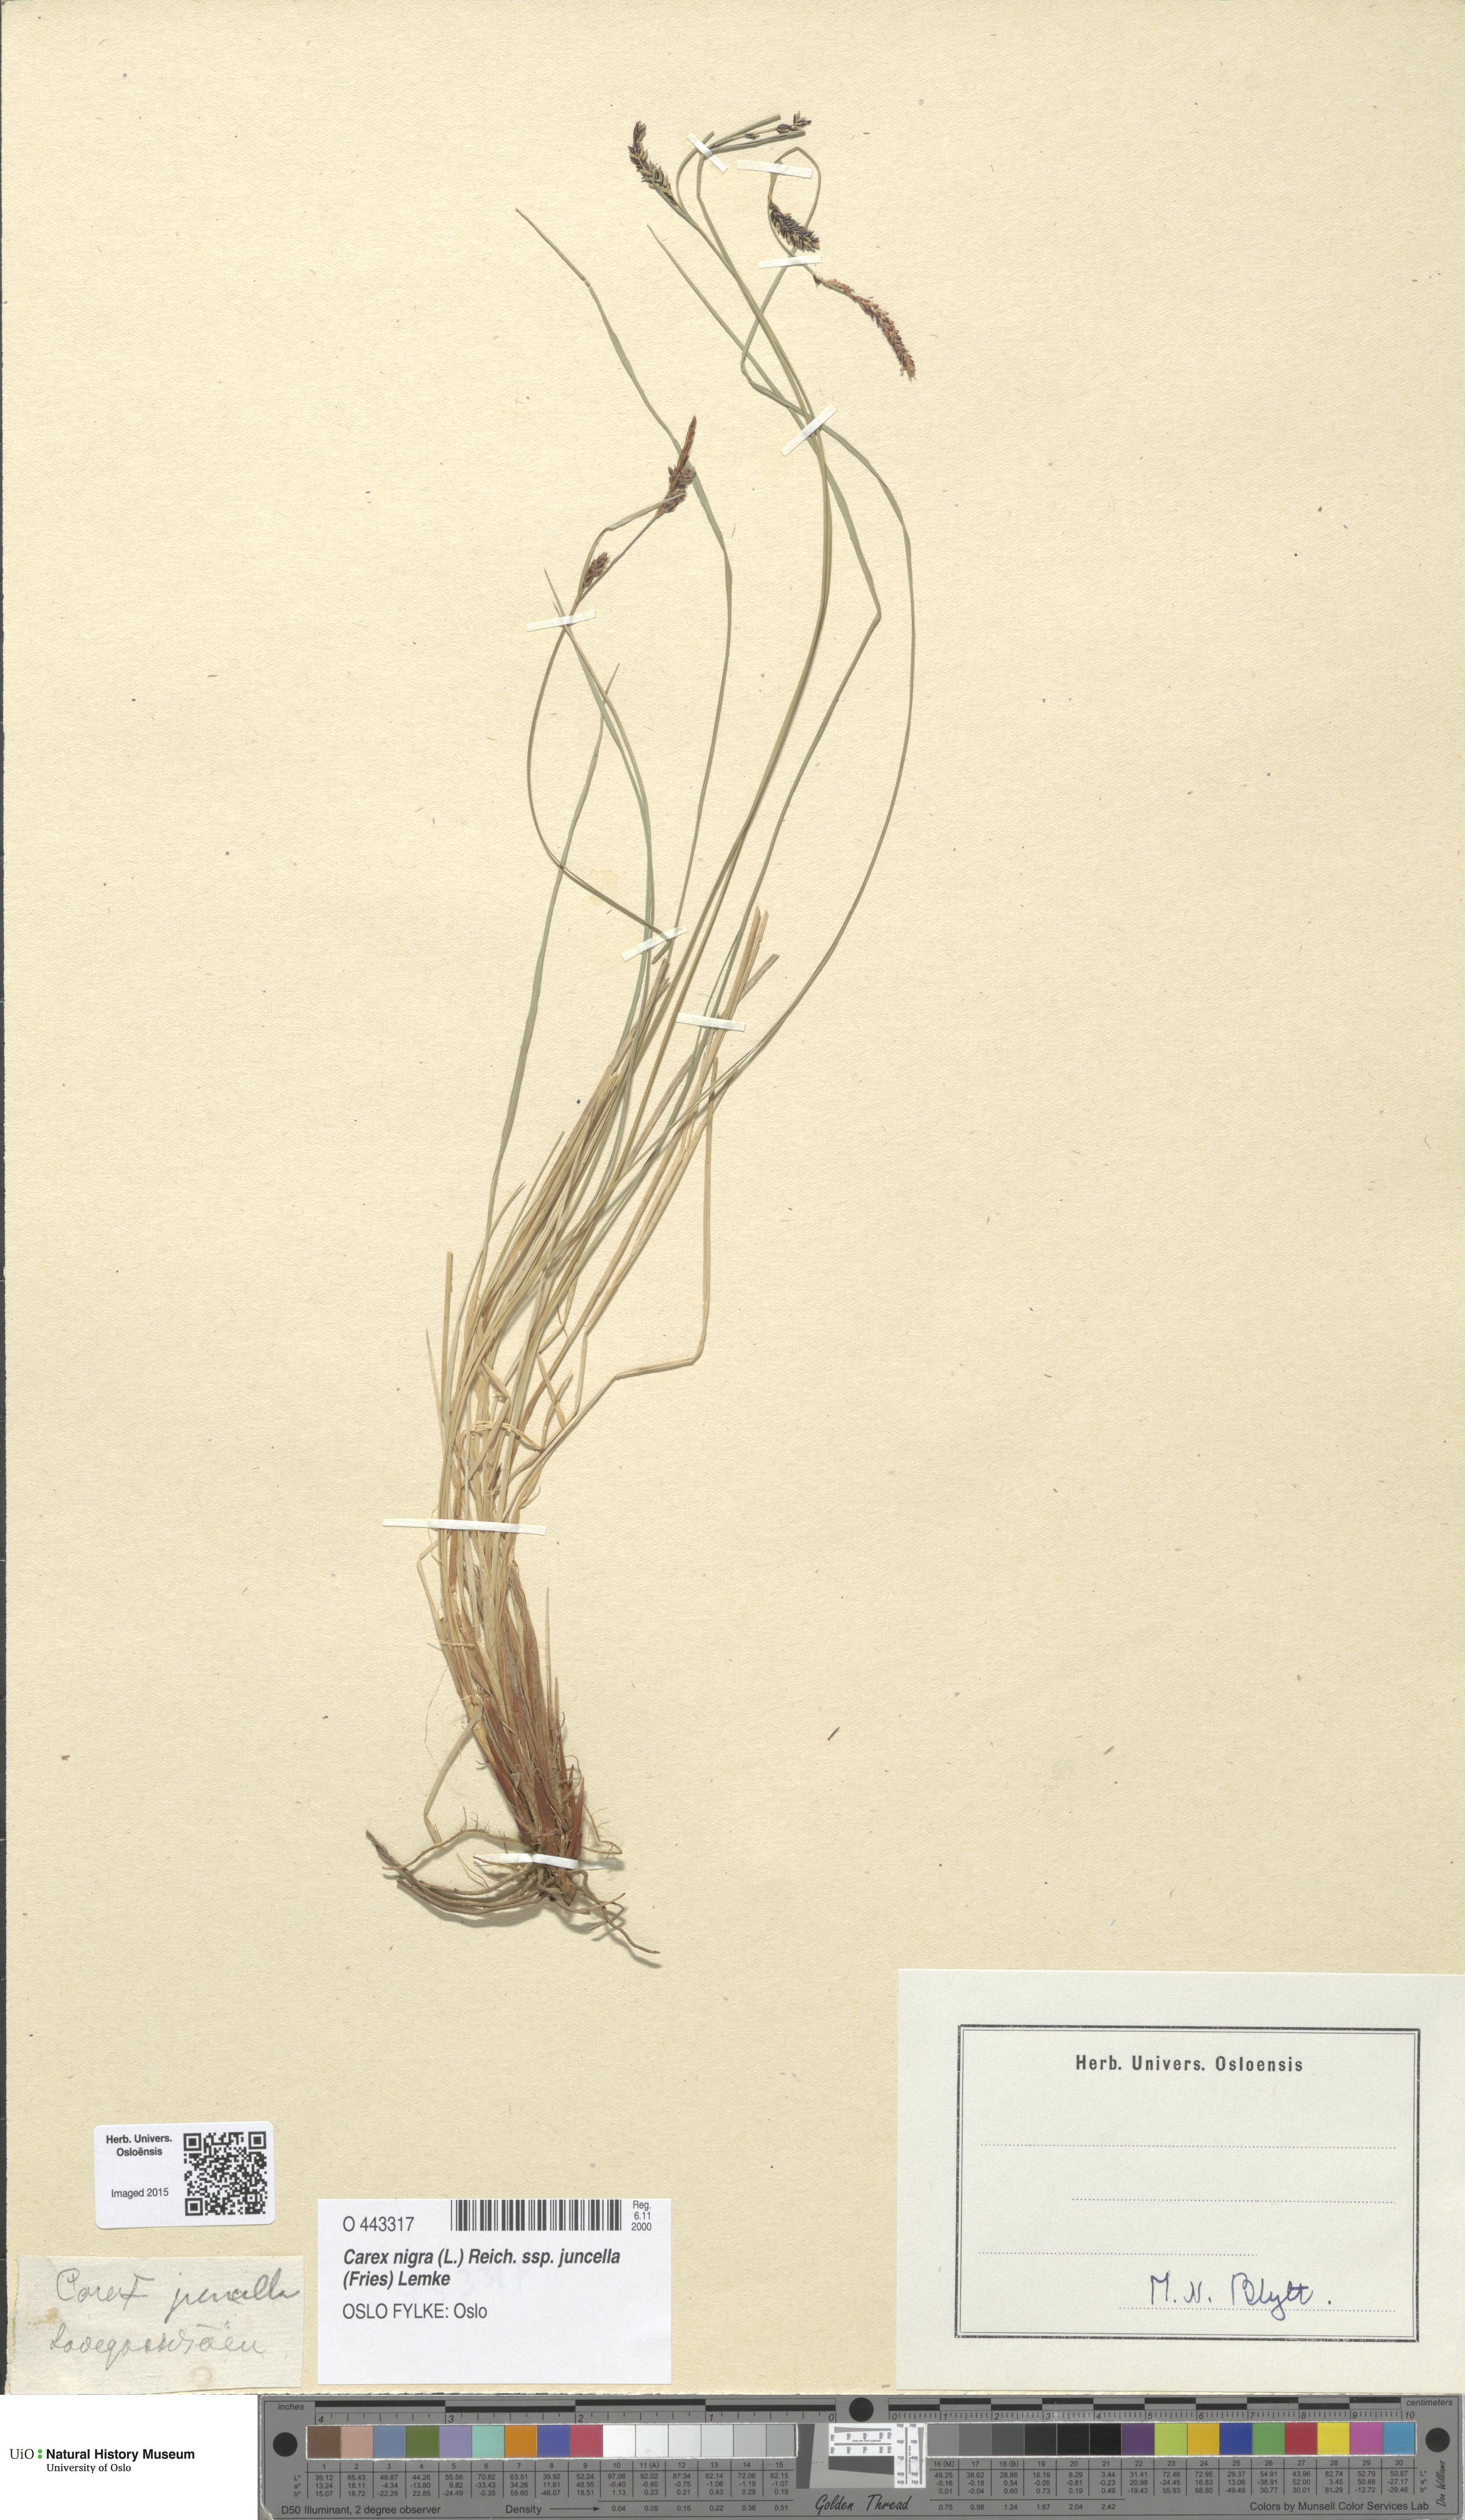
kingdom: Plantae
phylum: Tracheophyta
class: Liliopsida
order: Poales
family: Cyperaceae
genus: Carex
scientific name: Carex nigra
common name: Common sedge
